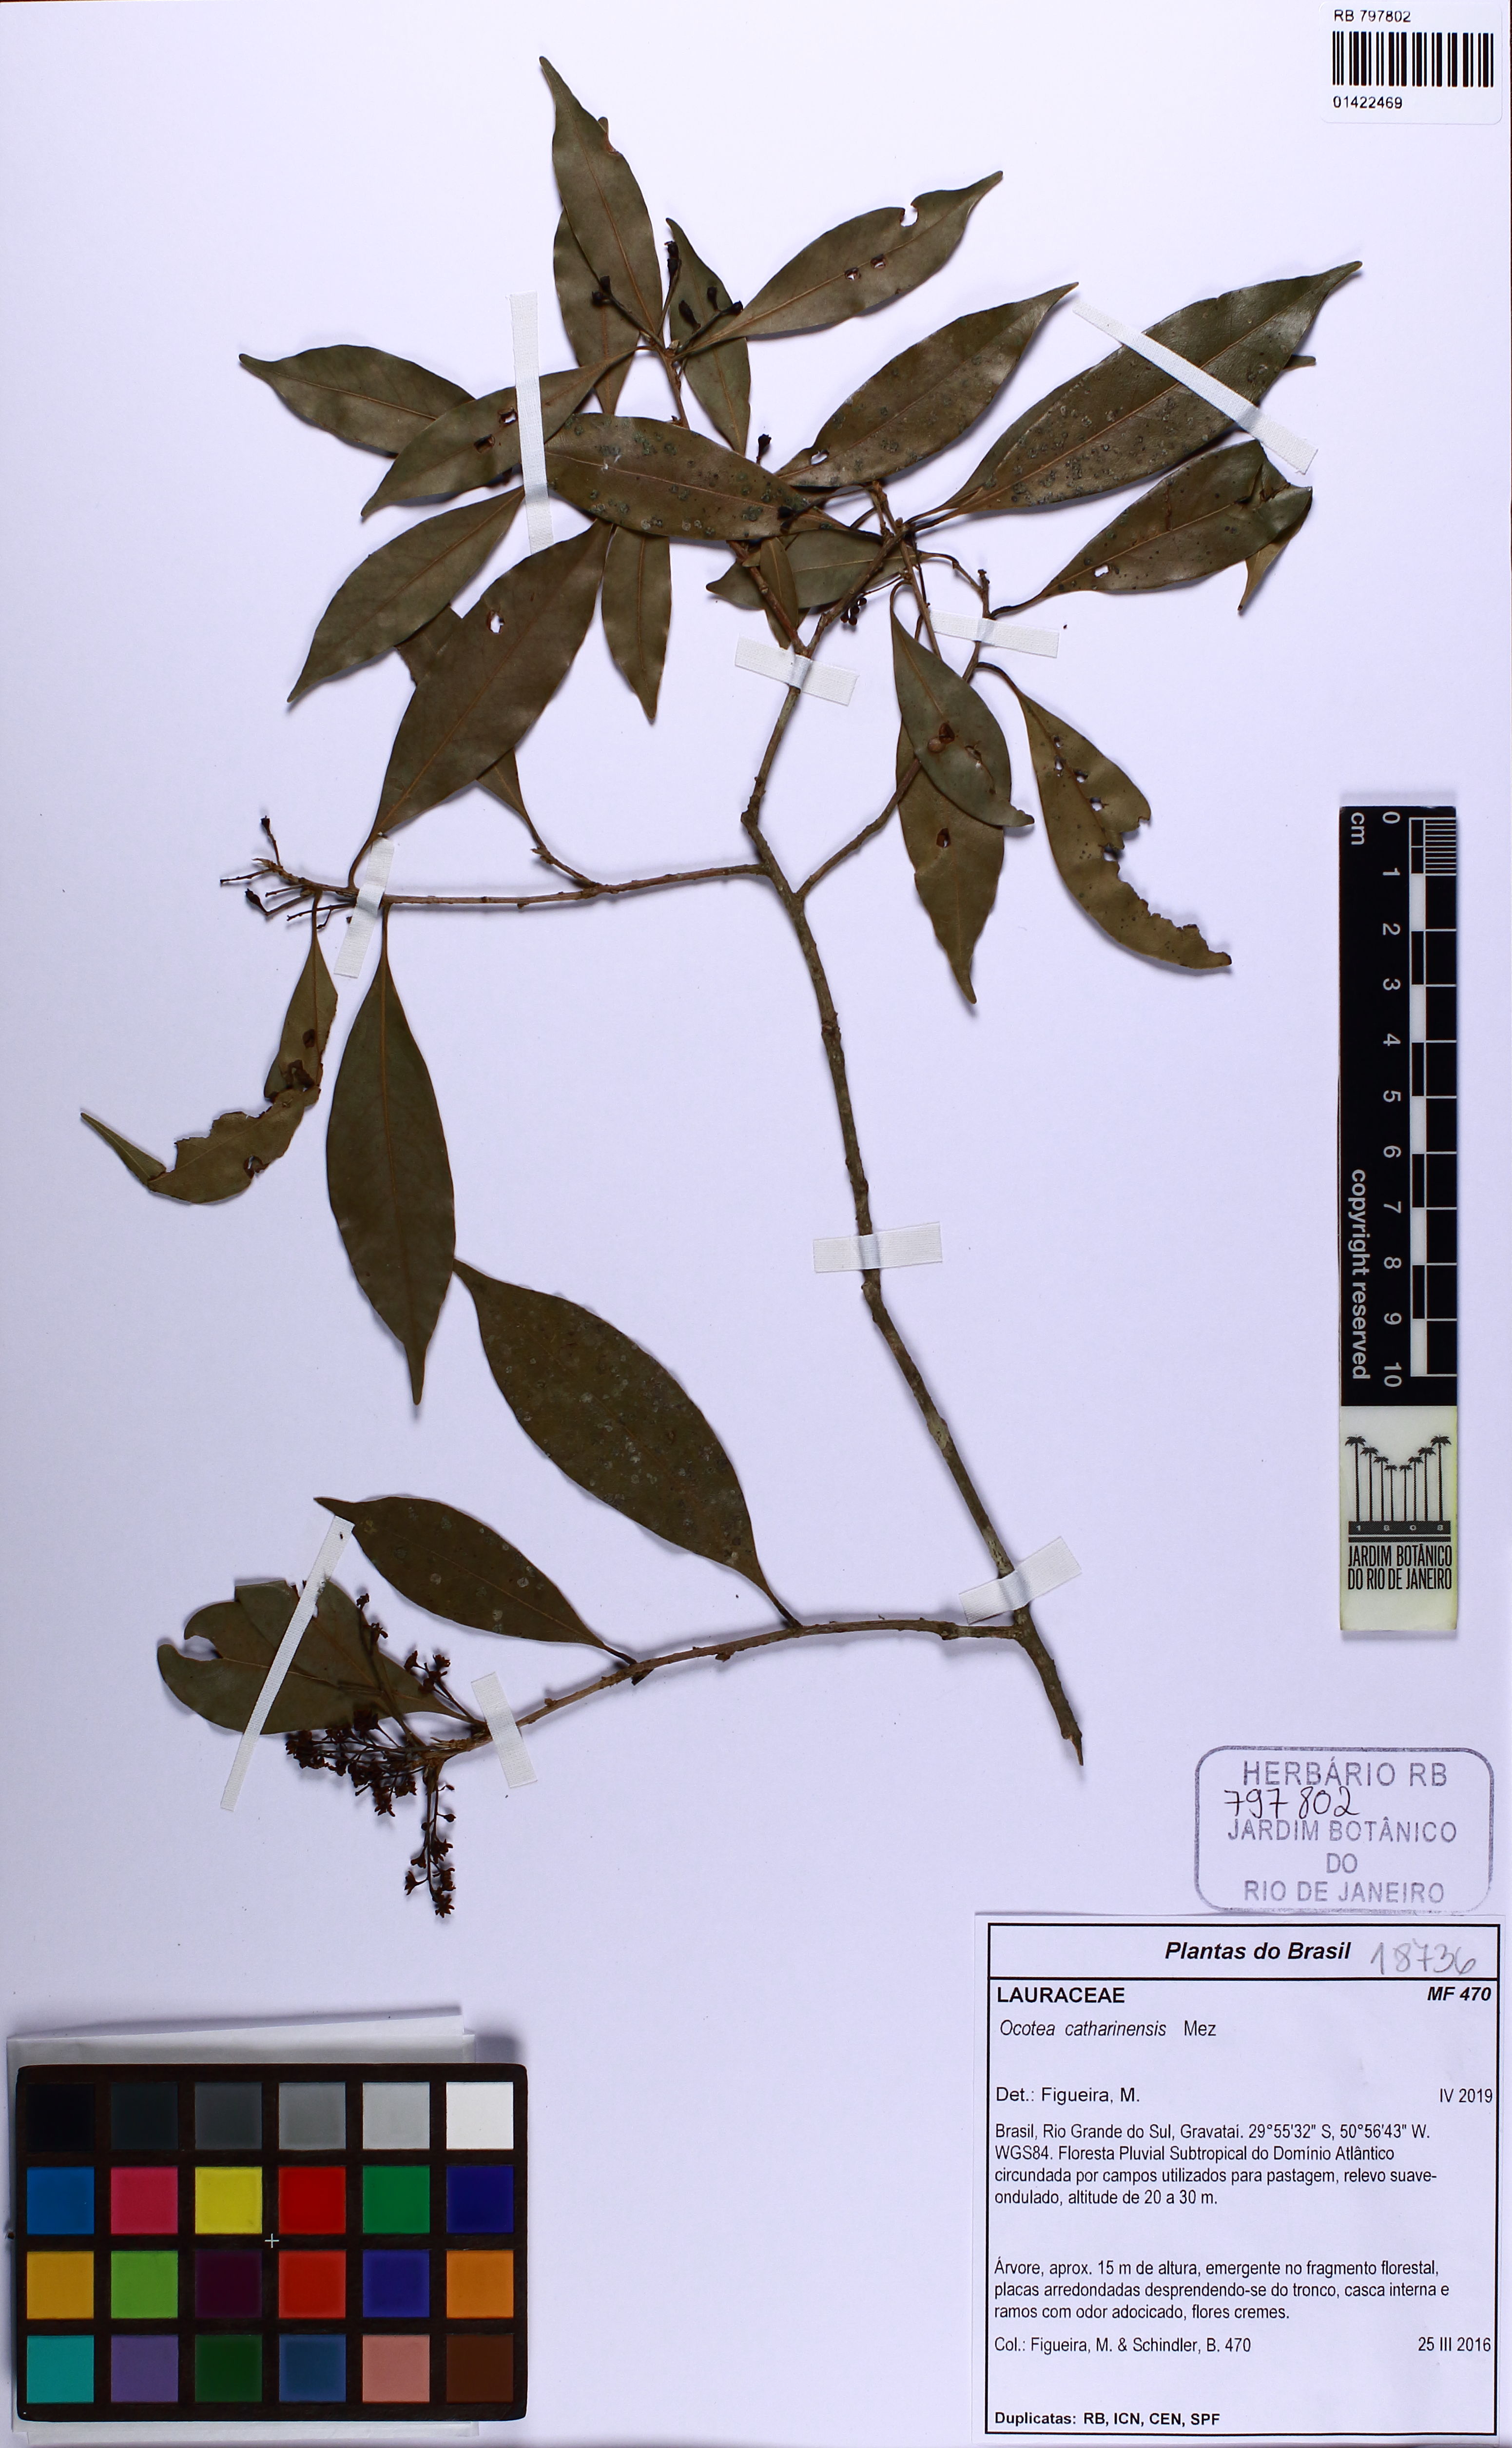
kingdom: Plantae
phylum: Tracheophyta
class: Magnoliopsida
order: Laurales
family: Lauraceae
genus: Ocotea
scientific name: Ocotea catharinensis
